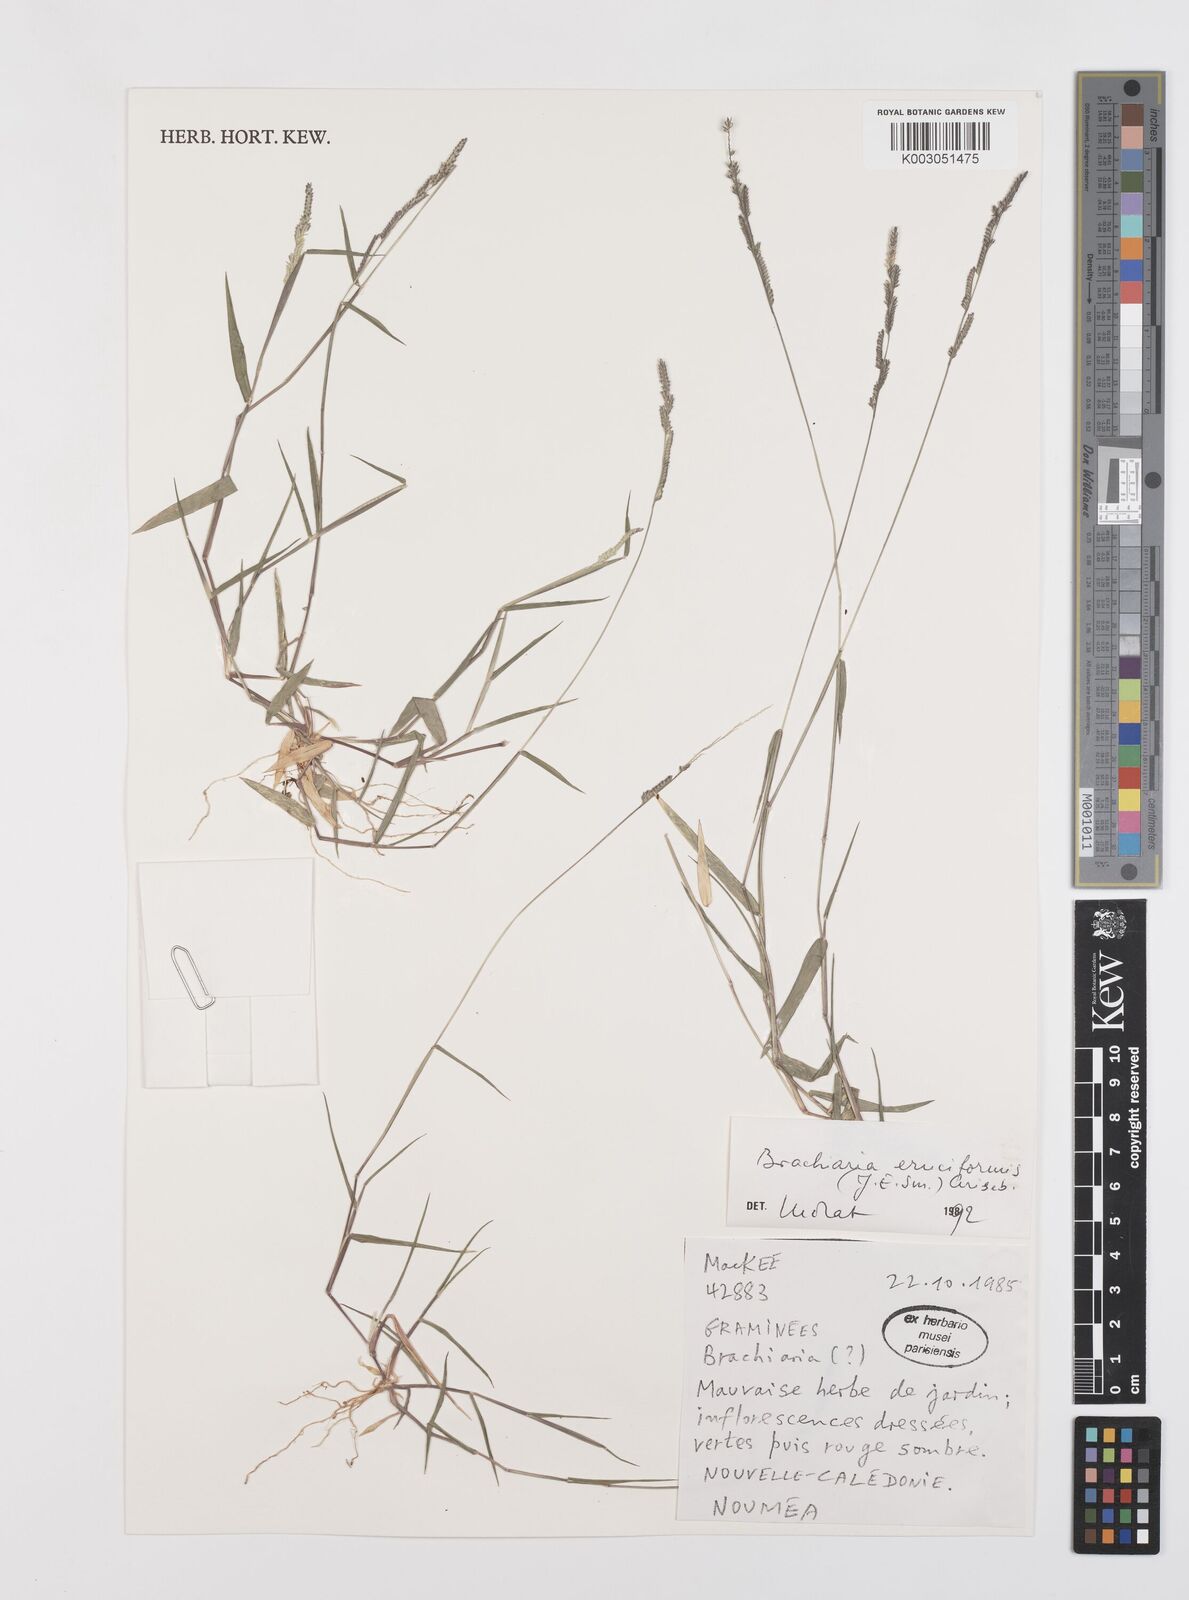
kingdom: Plantae
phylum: Tracheophyta
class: Liliopsida
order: Poales
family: Poaceae
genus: Moorochloa
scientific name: Moorochloa eruciformis
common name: Sweet signalgrass
